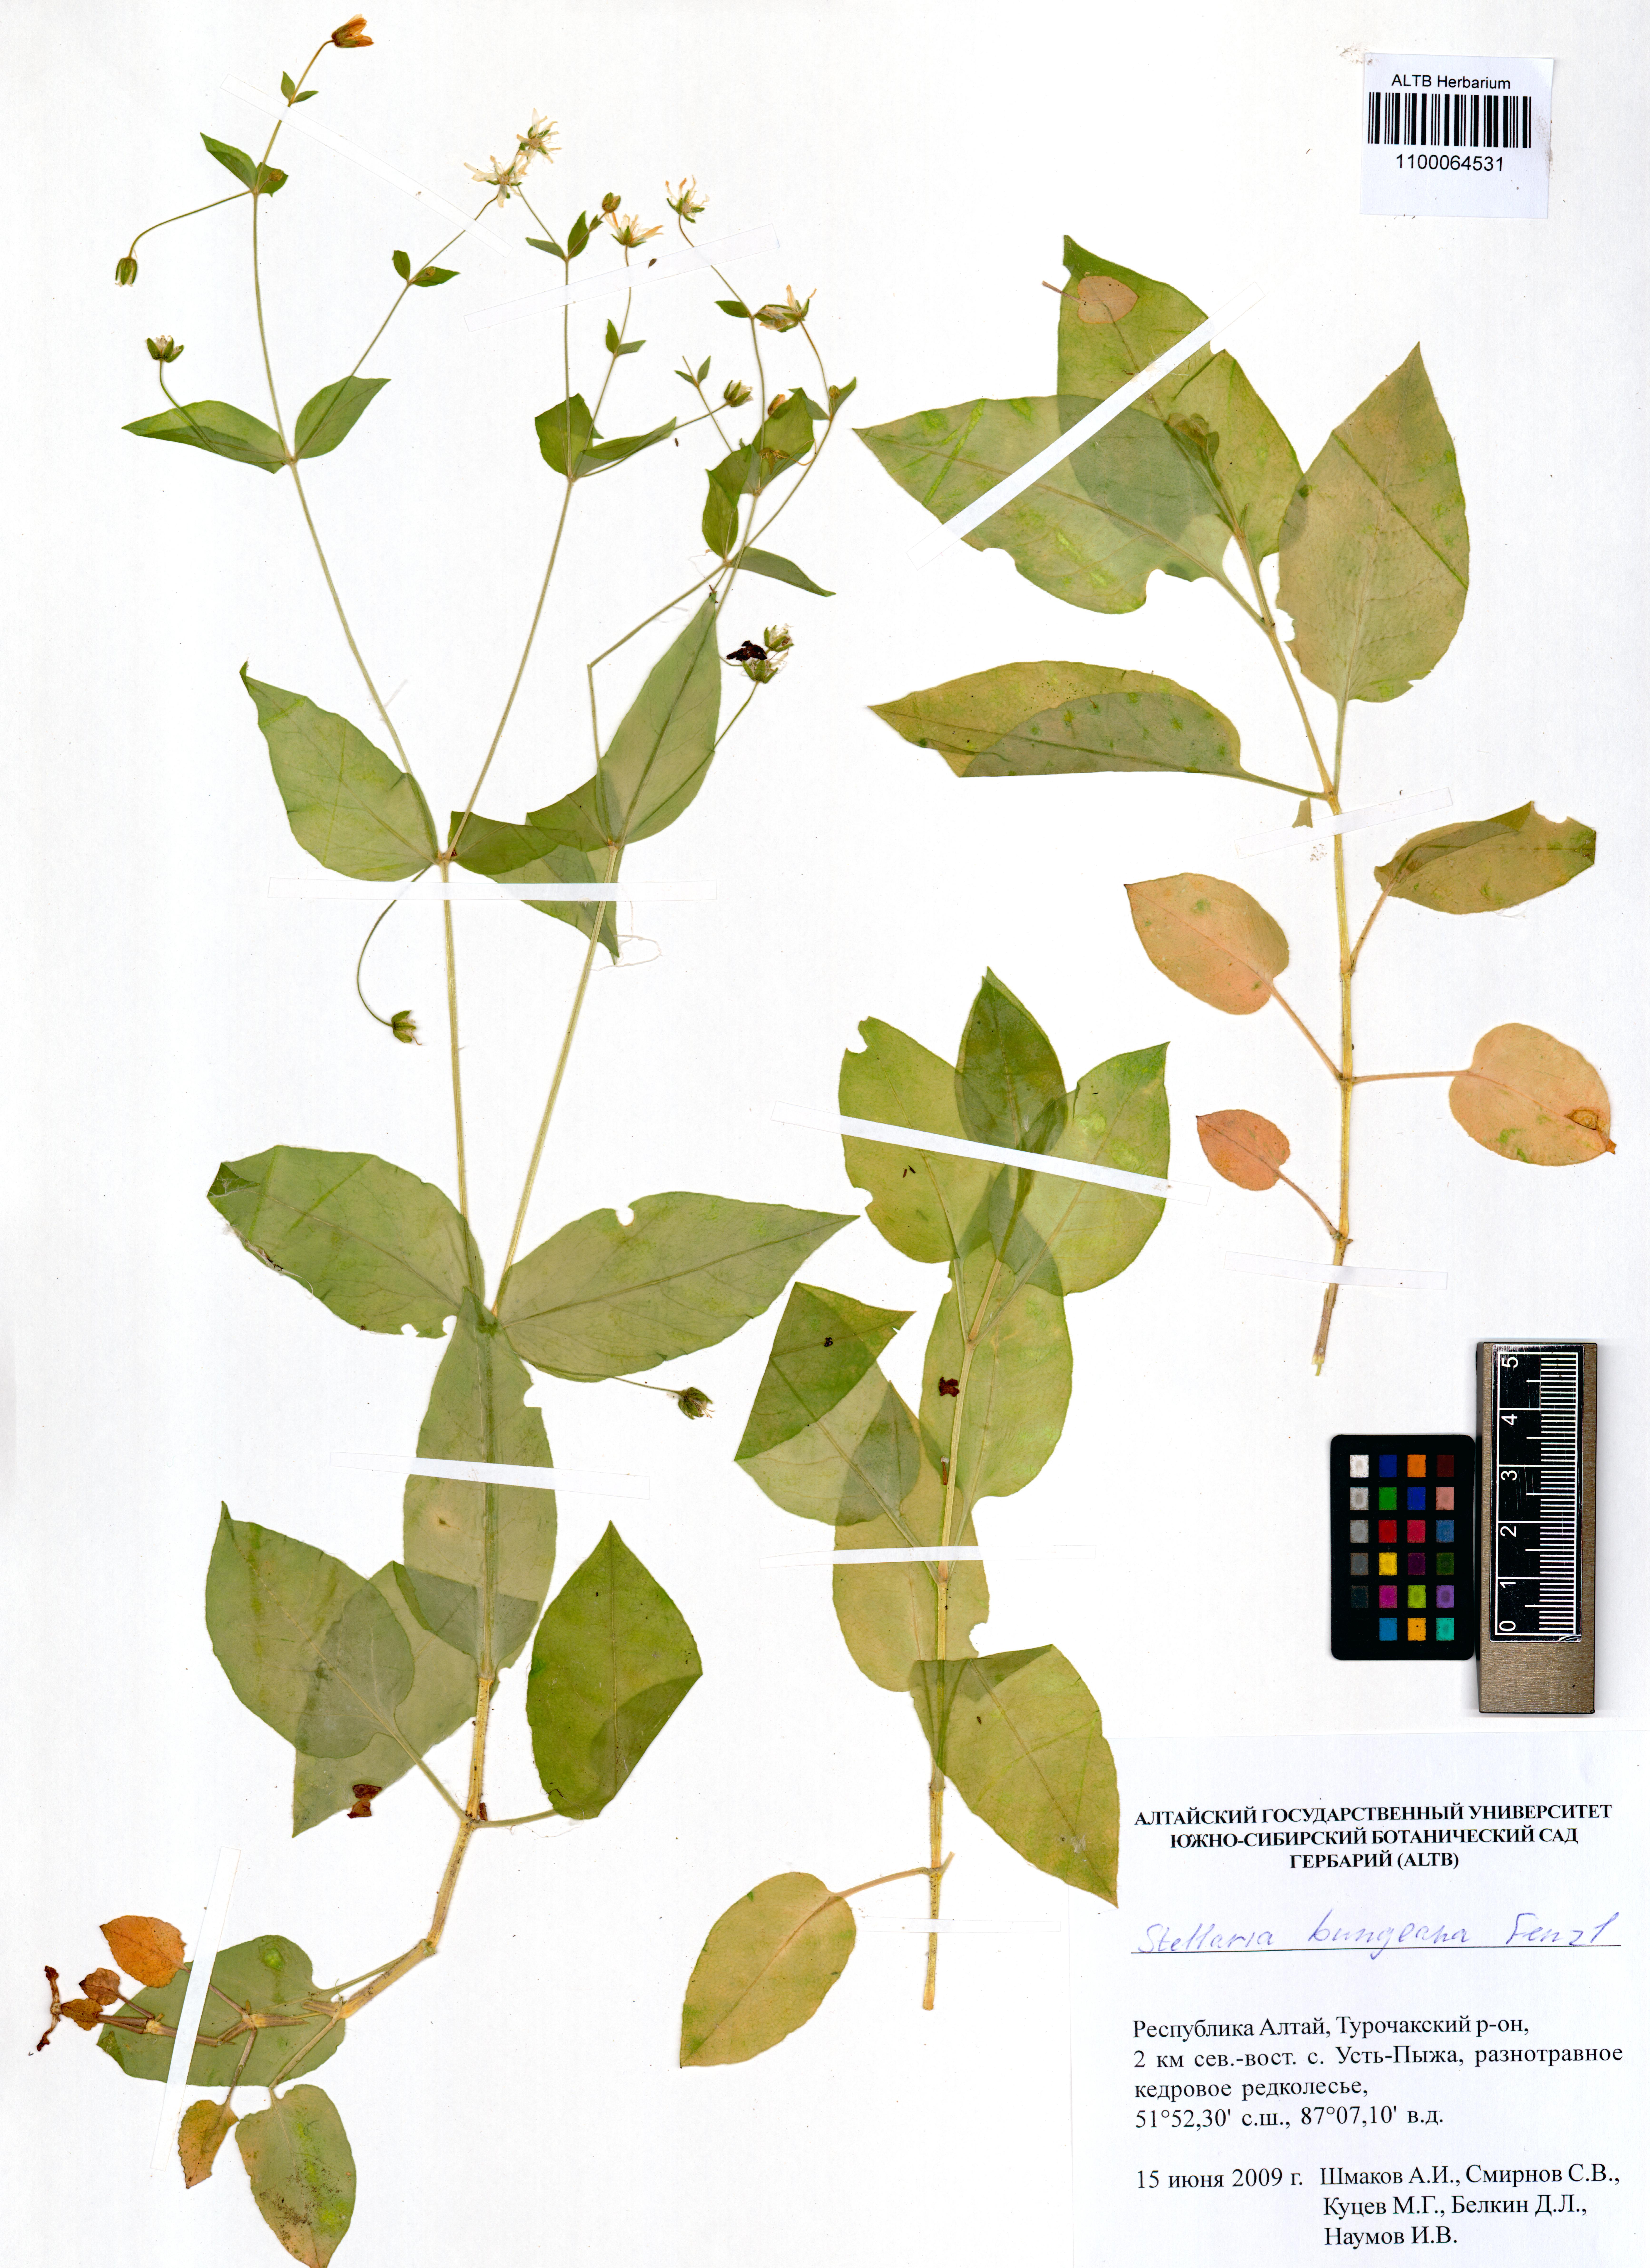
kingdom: Plantae
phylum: Tracheophyta
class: Magnoliopsida
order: Caryophyllales
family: Caryophyllaceae
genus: Stellaria
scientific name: Stellaria bungeana
